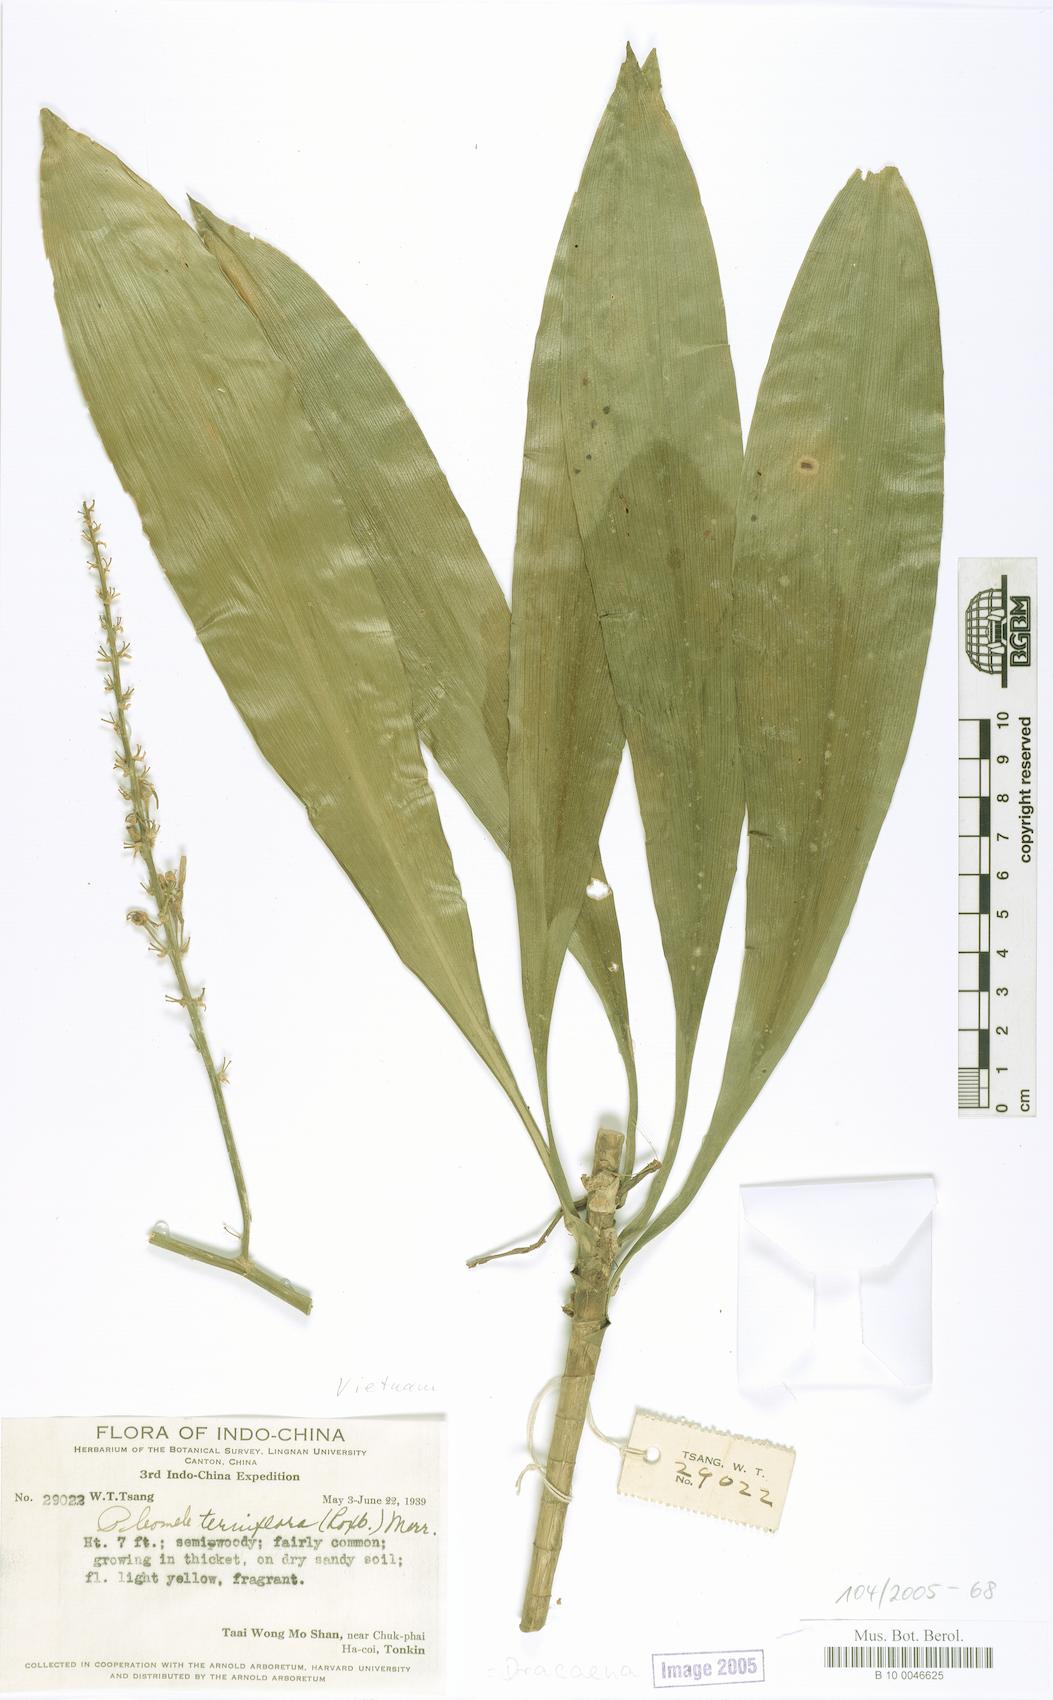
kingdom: Plantae
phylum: Tracheophyta
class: Liliopsida
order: Asparagales
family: Asparagaceae
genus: Dracaena
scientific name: Dracaena terniflora
